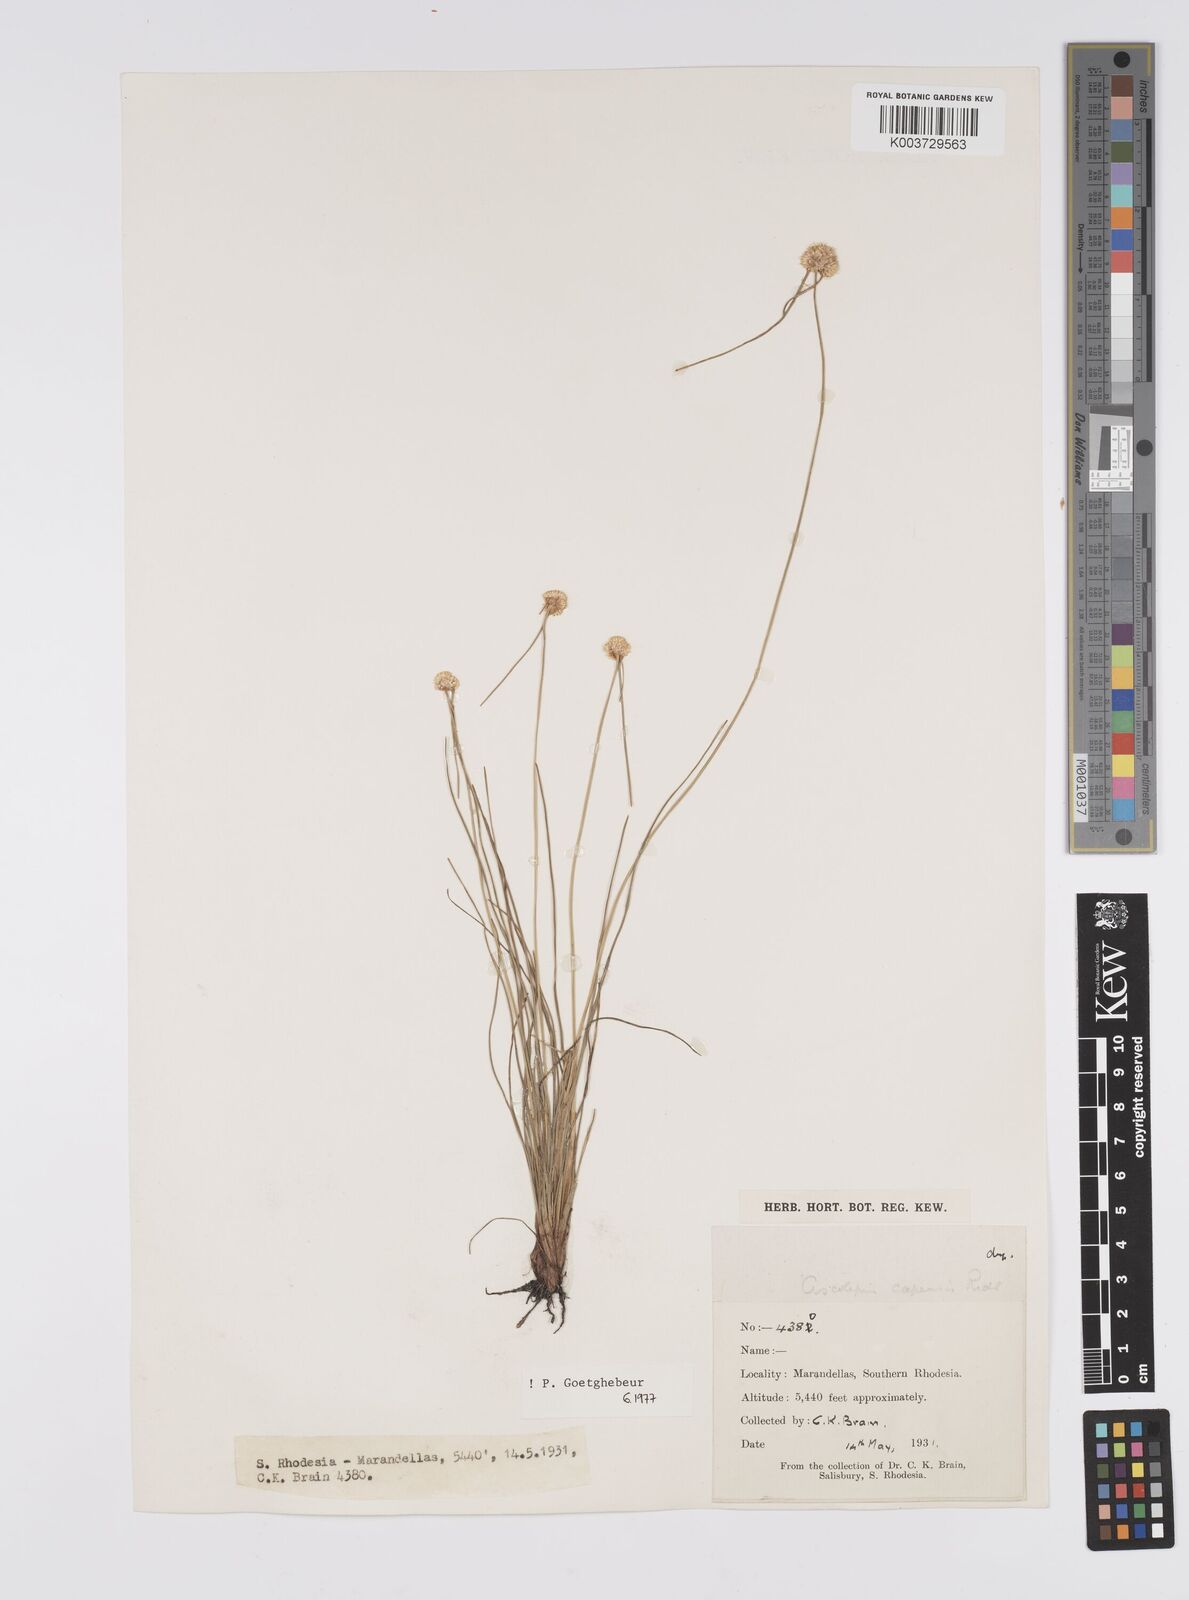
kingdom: Plantae
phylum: Tracheophyta
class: Liliopsida
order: Poales
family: Cyperaceae
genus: Cyperus
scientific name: Cyperus
